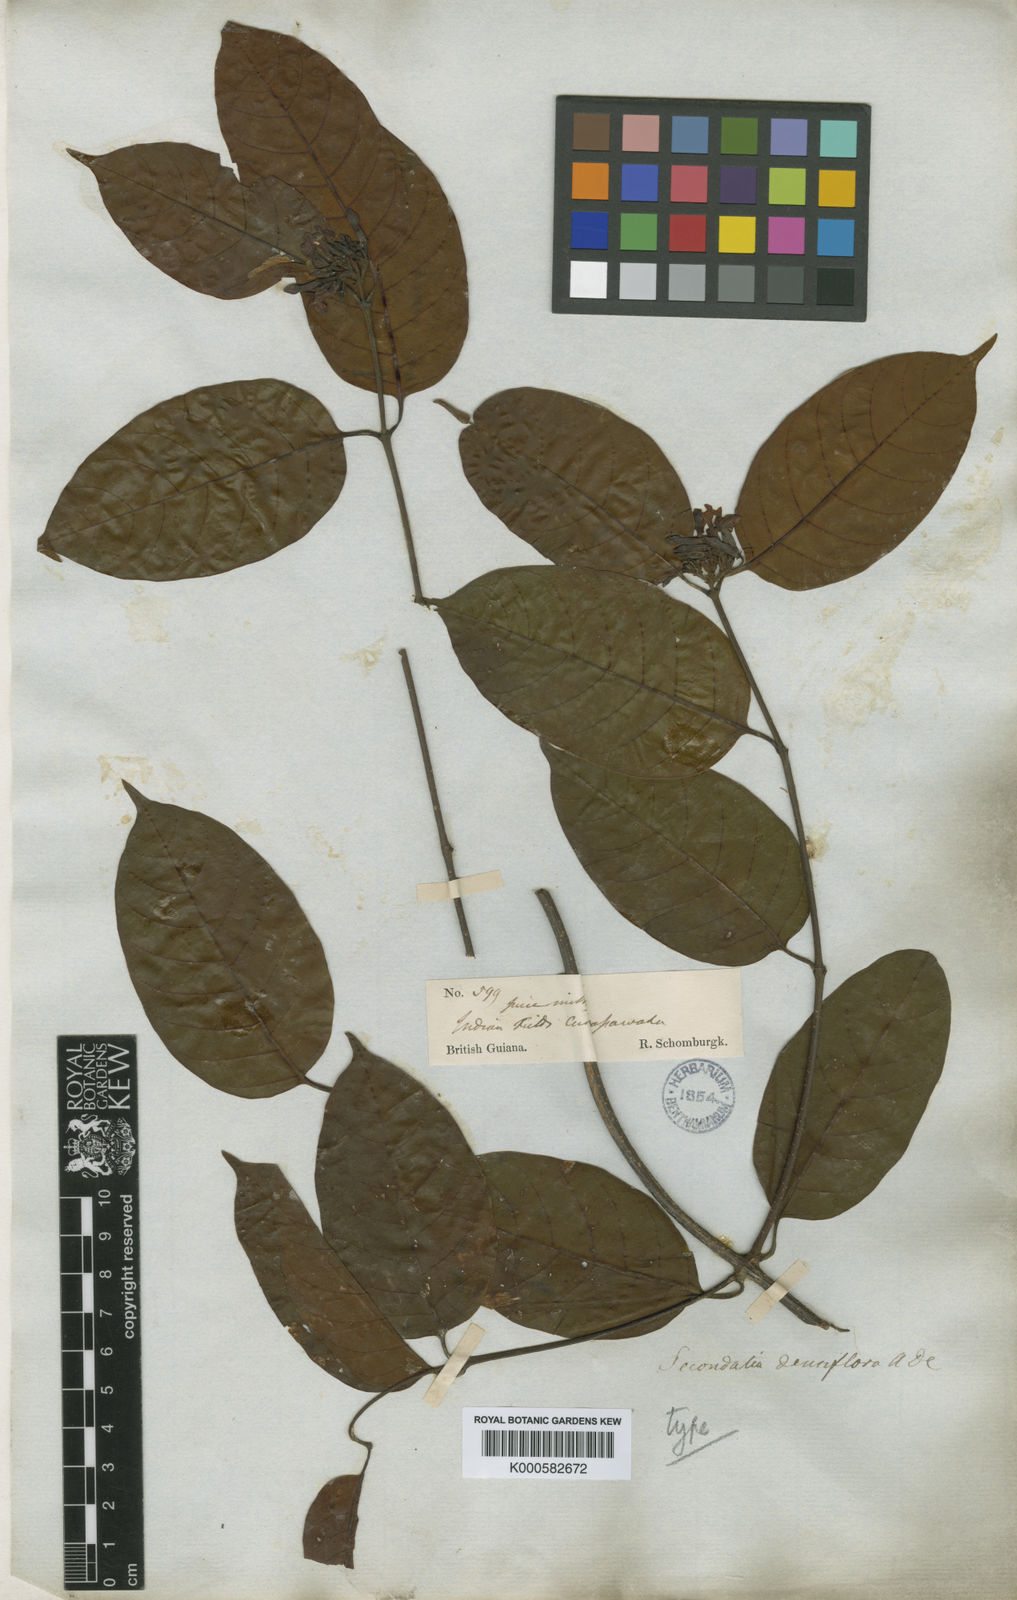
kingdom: Plantae
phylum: Tracheophyta
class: Magnoliopsida
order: Gentianales
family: Apocynaceae
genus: Secondatia
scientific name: Secondatia densiflora
